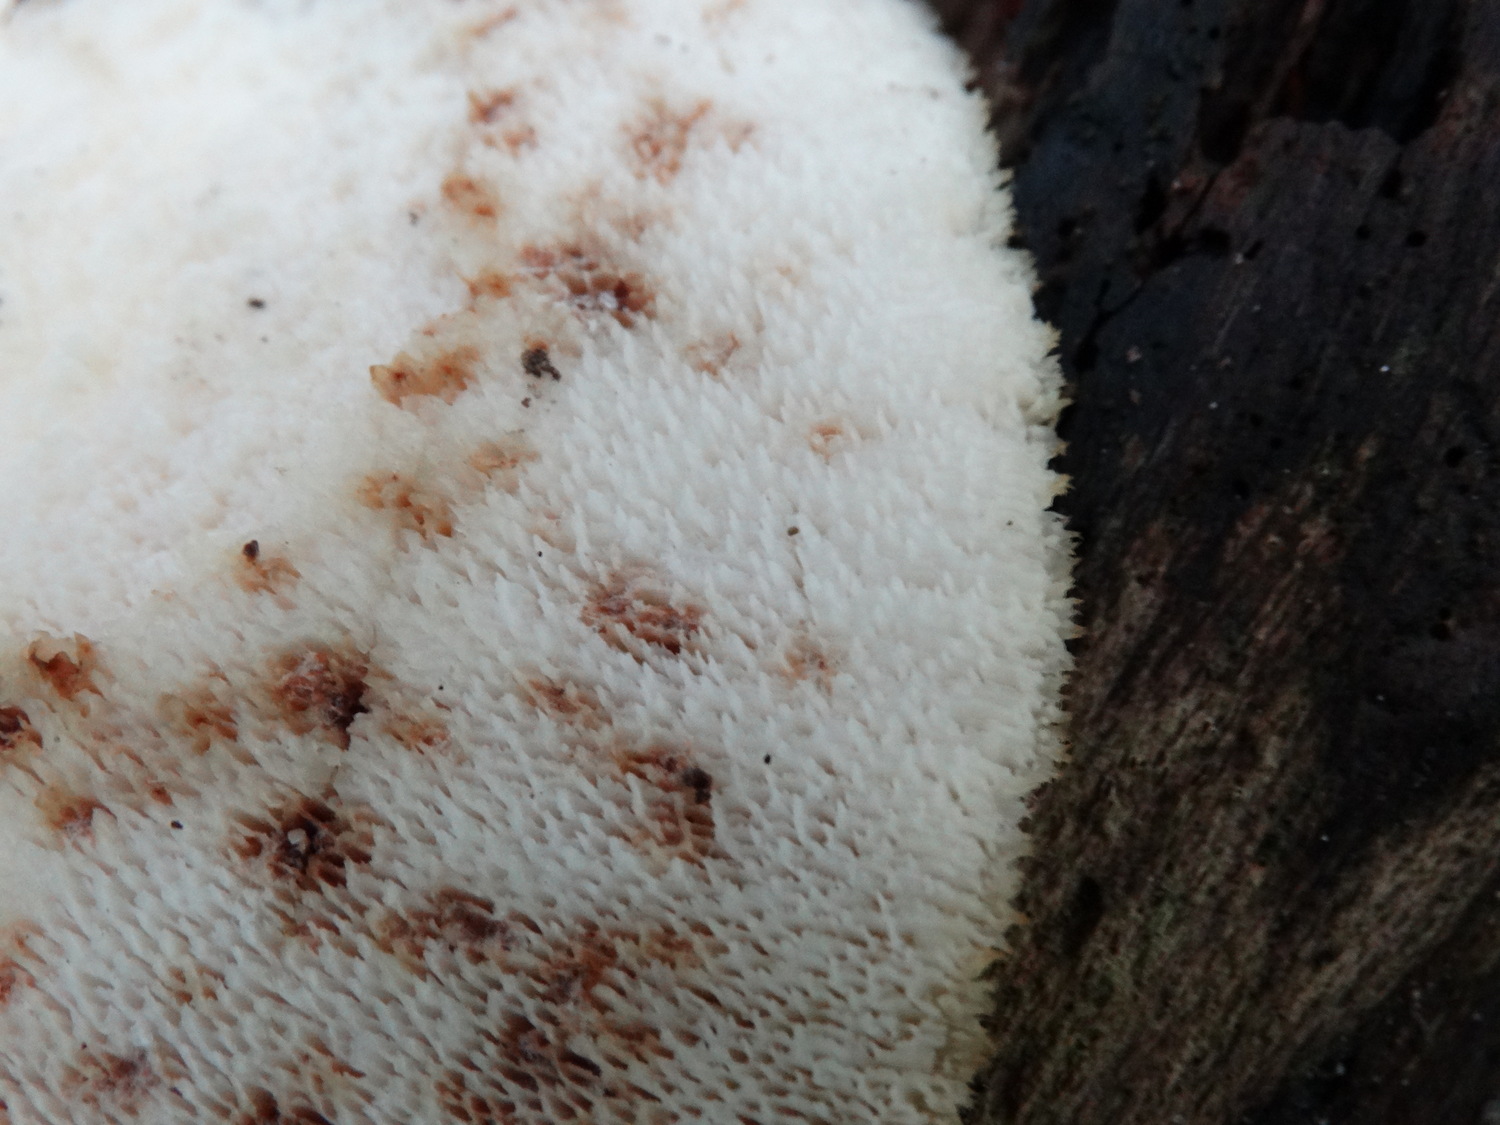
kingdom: Fungi
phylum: Basidiomycota
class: Agaricomycetes
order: Polyporales
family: Polyporaceae
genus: Polyporus
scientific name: Polyporus tuberaster
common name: knoldet stilkporesvamp
